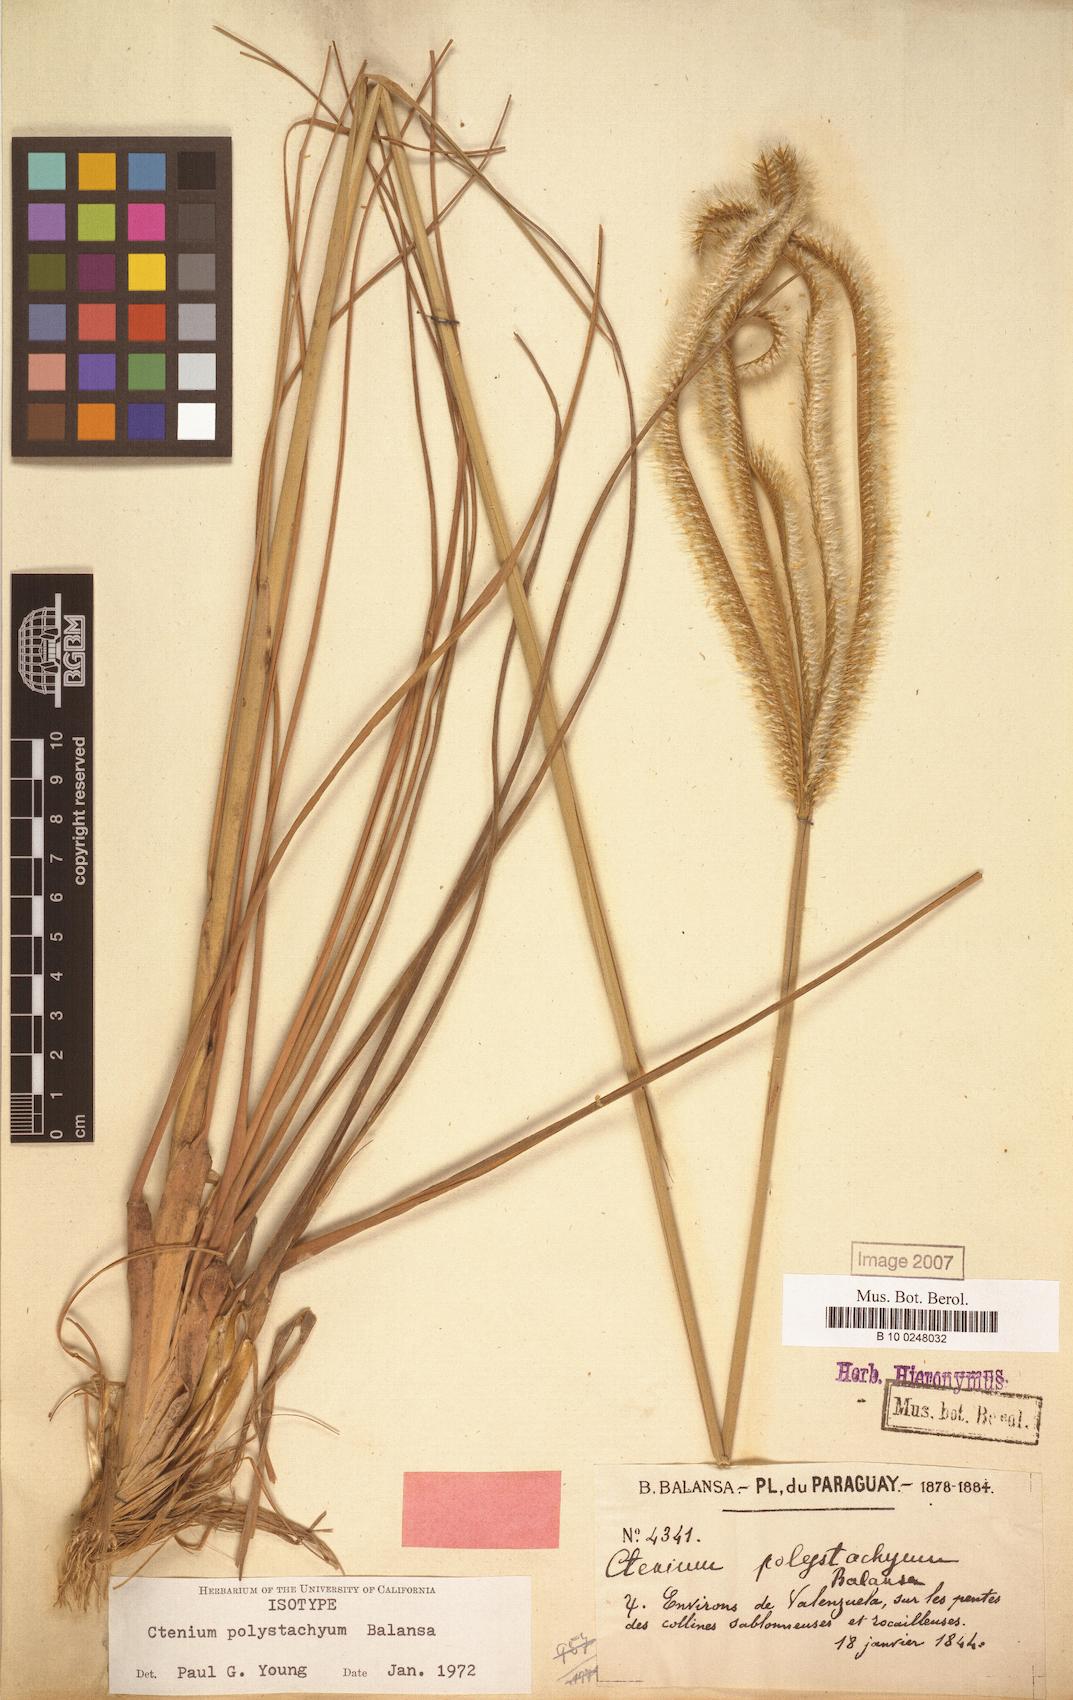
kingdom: Plantae
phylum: Tracheophyta
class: Liliopsida
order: Poales
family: Poaceae
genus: Ctenium
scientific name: Ctenium polystachyum
